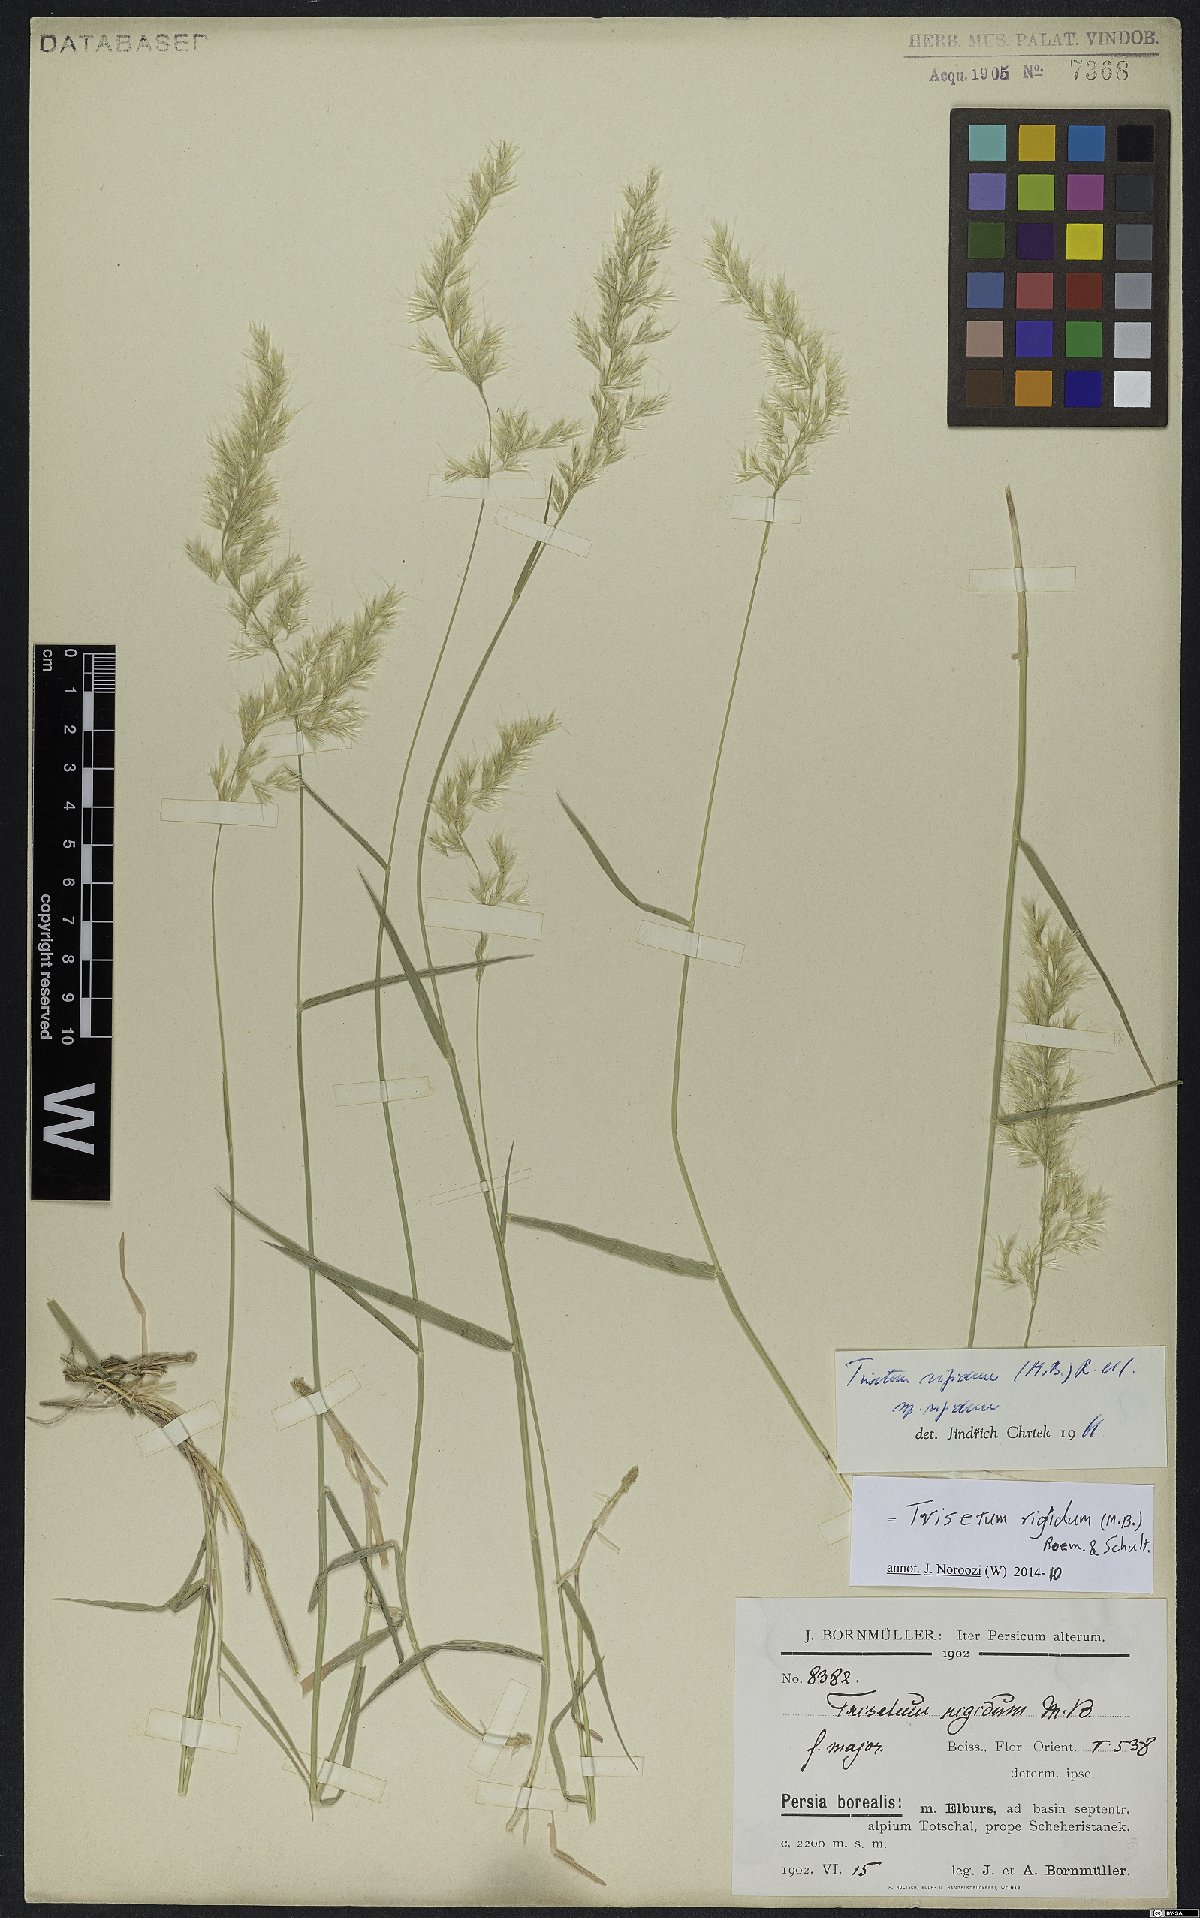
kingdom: Plantae
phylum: Tracheophyta
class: Liliopsida
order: Poales
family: Poaceae
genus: Trisetum
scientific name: Trisetum rigidum
